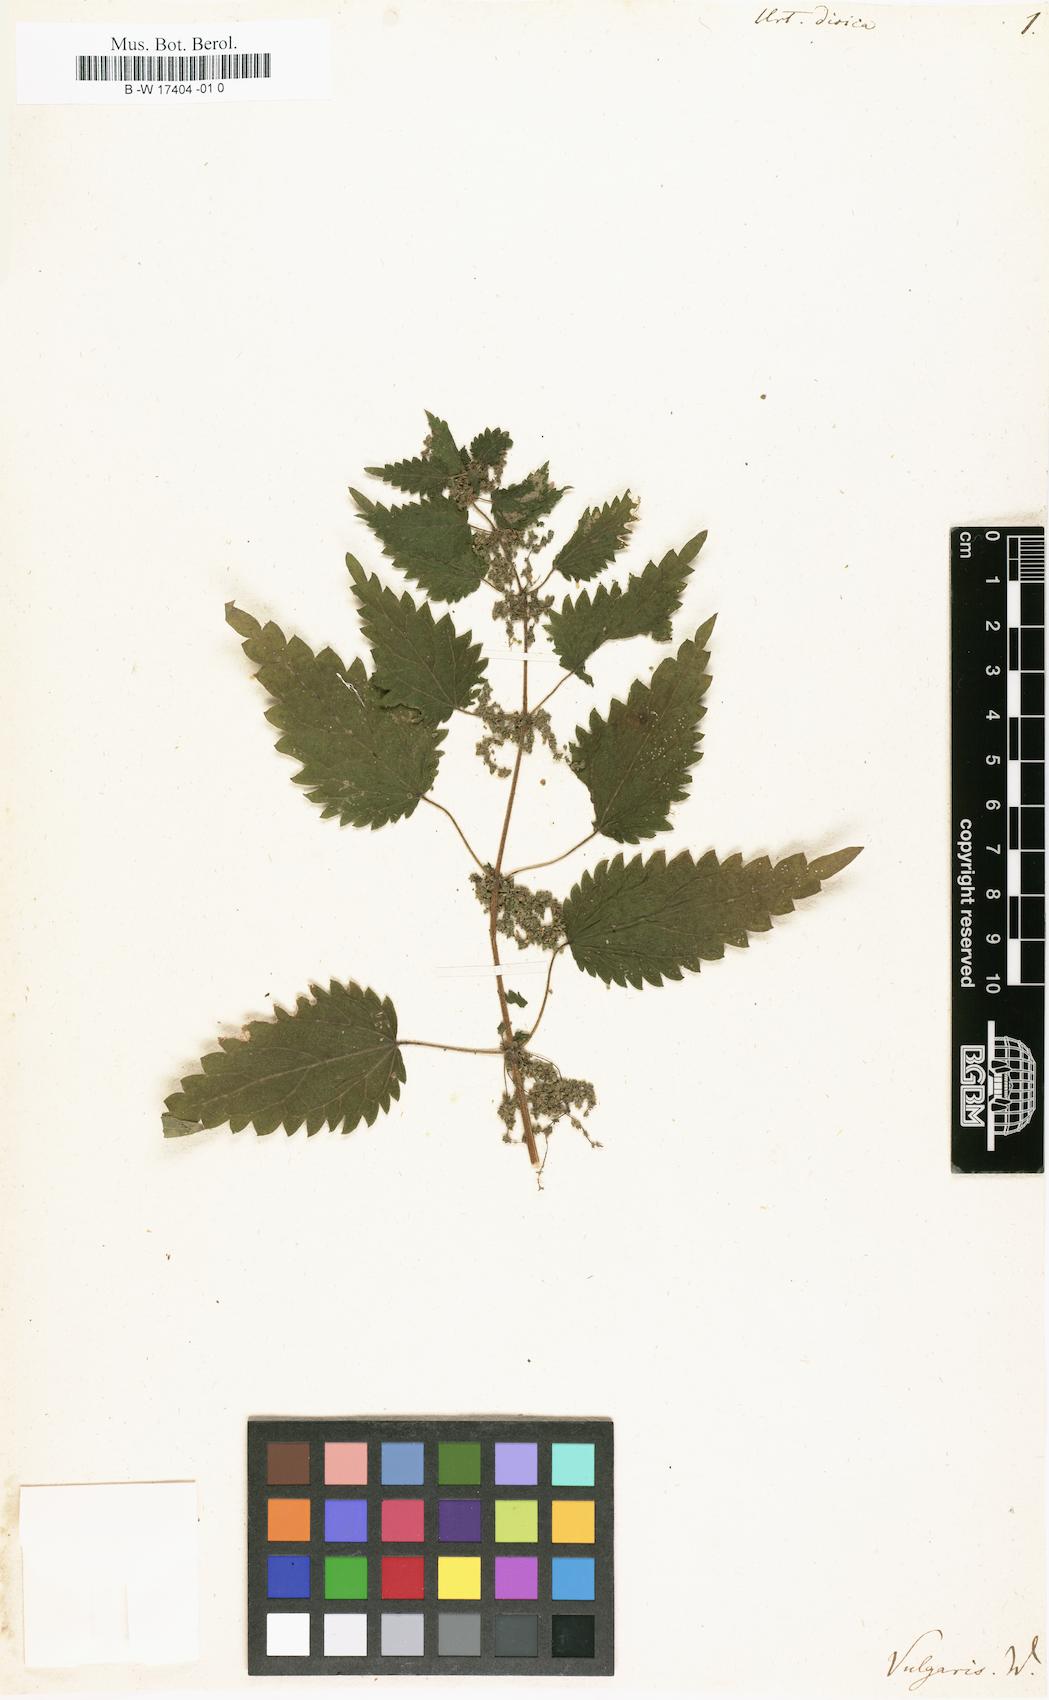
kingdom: Plantae
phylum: Tracheophyta
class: Magnoliopsida
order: Rosales
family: Urticaceae
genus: Urtica
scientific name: Urtica dioica
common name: Common nettle
